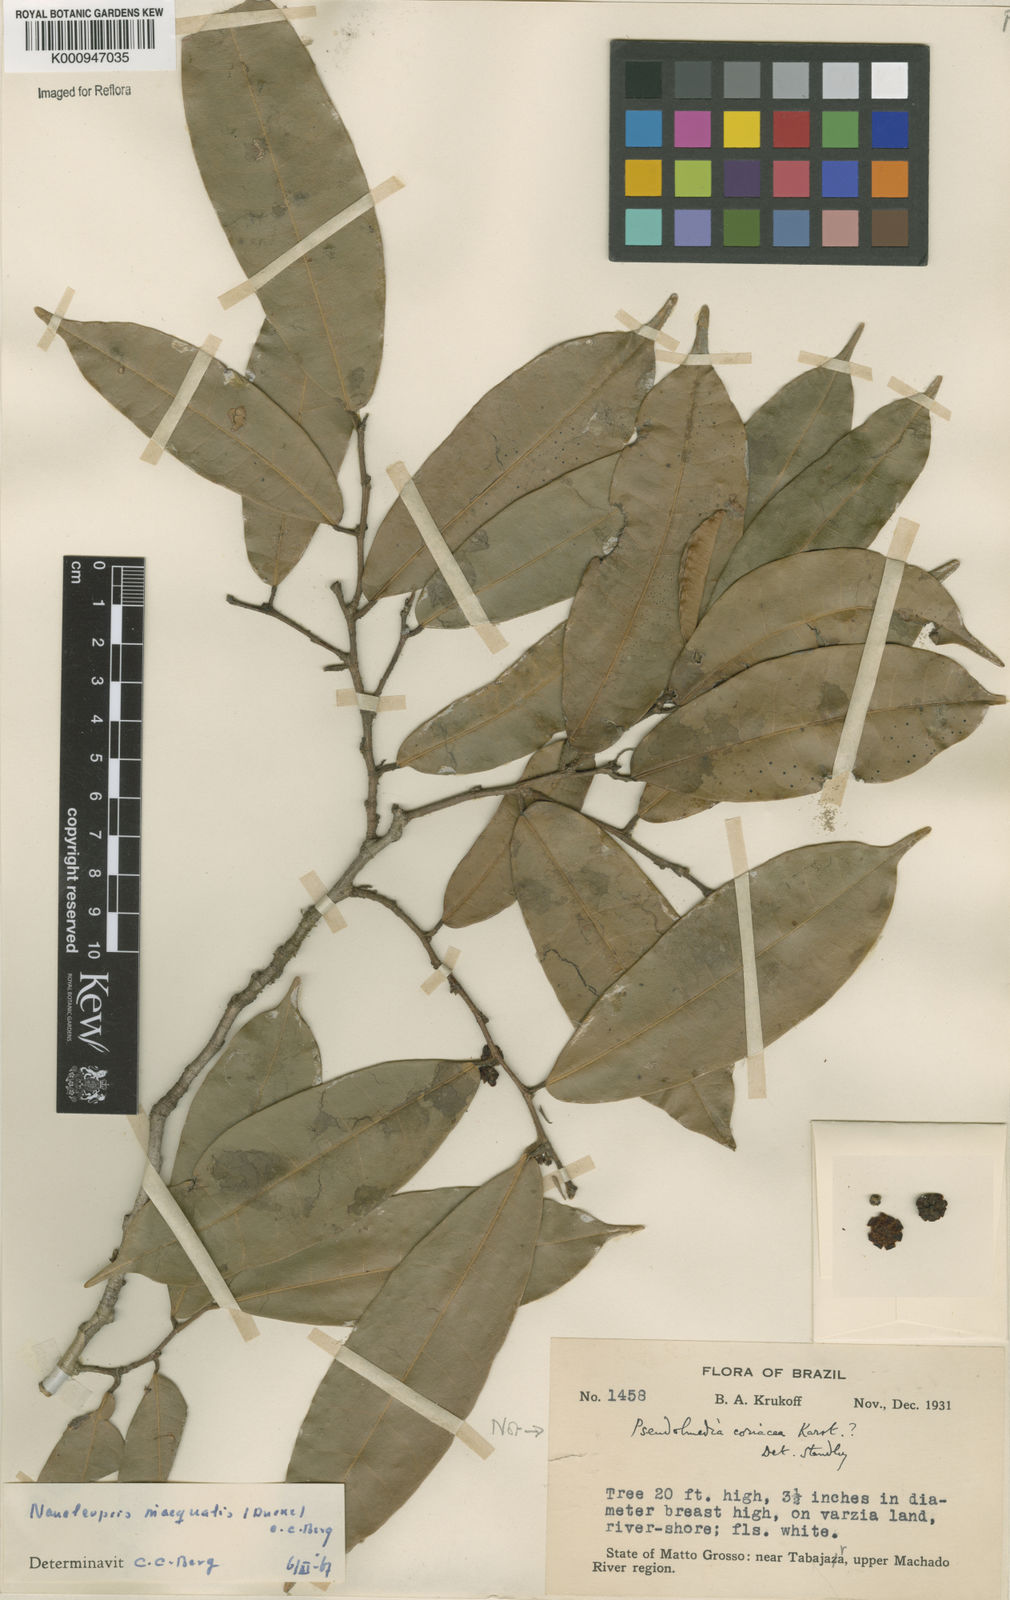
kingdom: Plantae
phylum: Tracheophyta
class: Magnoliopsida
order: Rosales
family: Moraceae
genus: Naucleopsis
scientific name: Naucleopsis inaequalis
